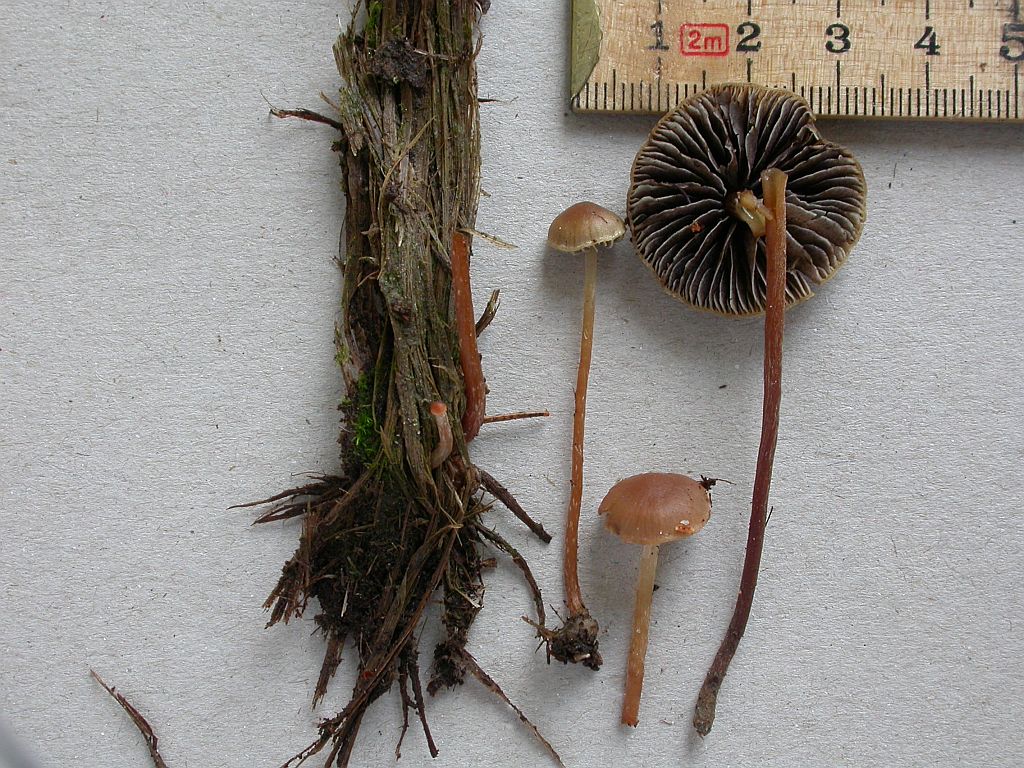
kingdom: Fungi
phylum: Basidiomycota
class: Agaricomycetes
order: Agaricales
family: Strophariaceae
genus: Bogbodia
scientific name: Bogbodia uda
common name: tørve-svovlhat
